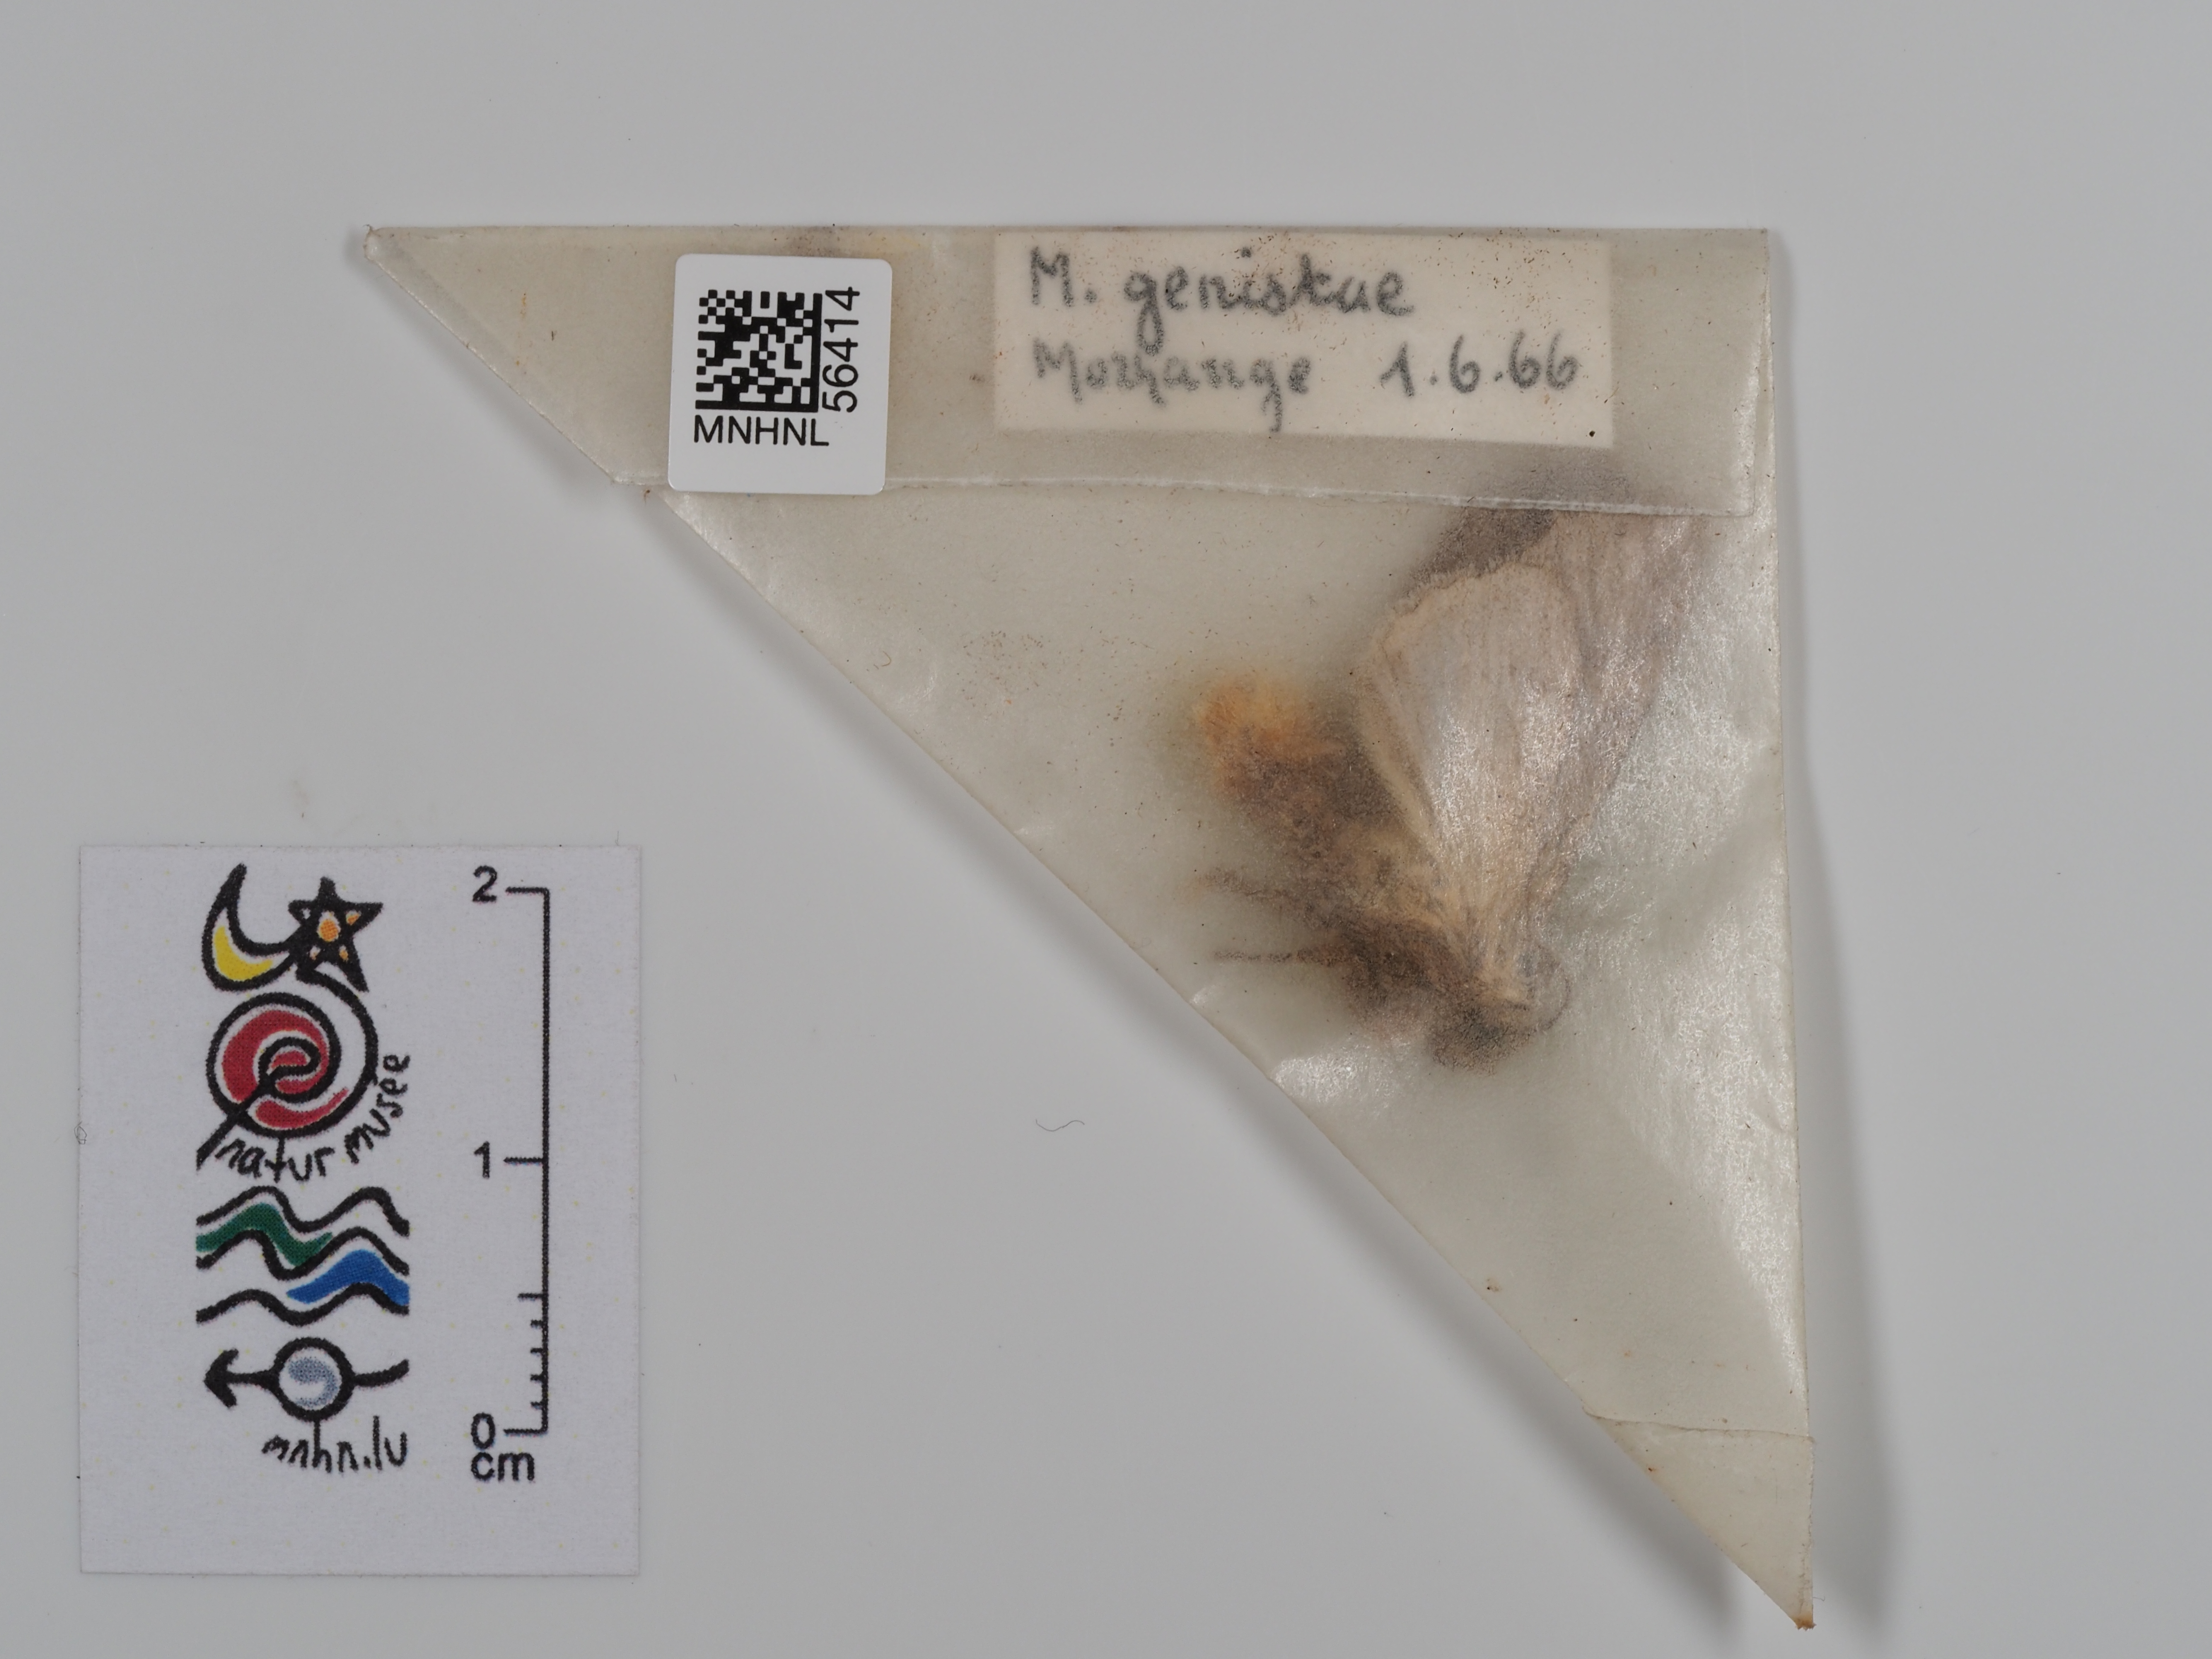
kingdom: Animalia
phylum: Arthropoda
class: Insecta
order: Lepidoptera
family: Noctuidae
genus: Lacanobia
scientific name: Lacanobia w-latinum
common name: Light brocade
